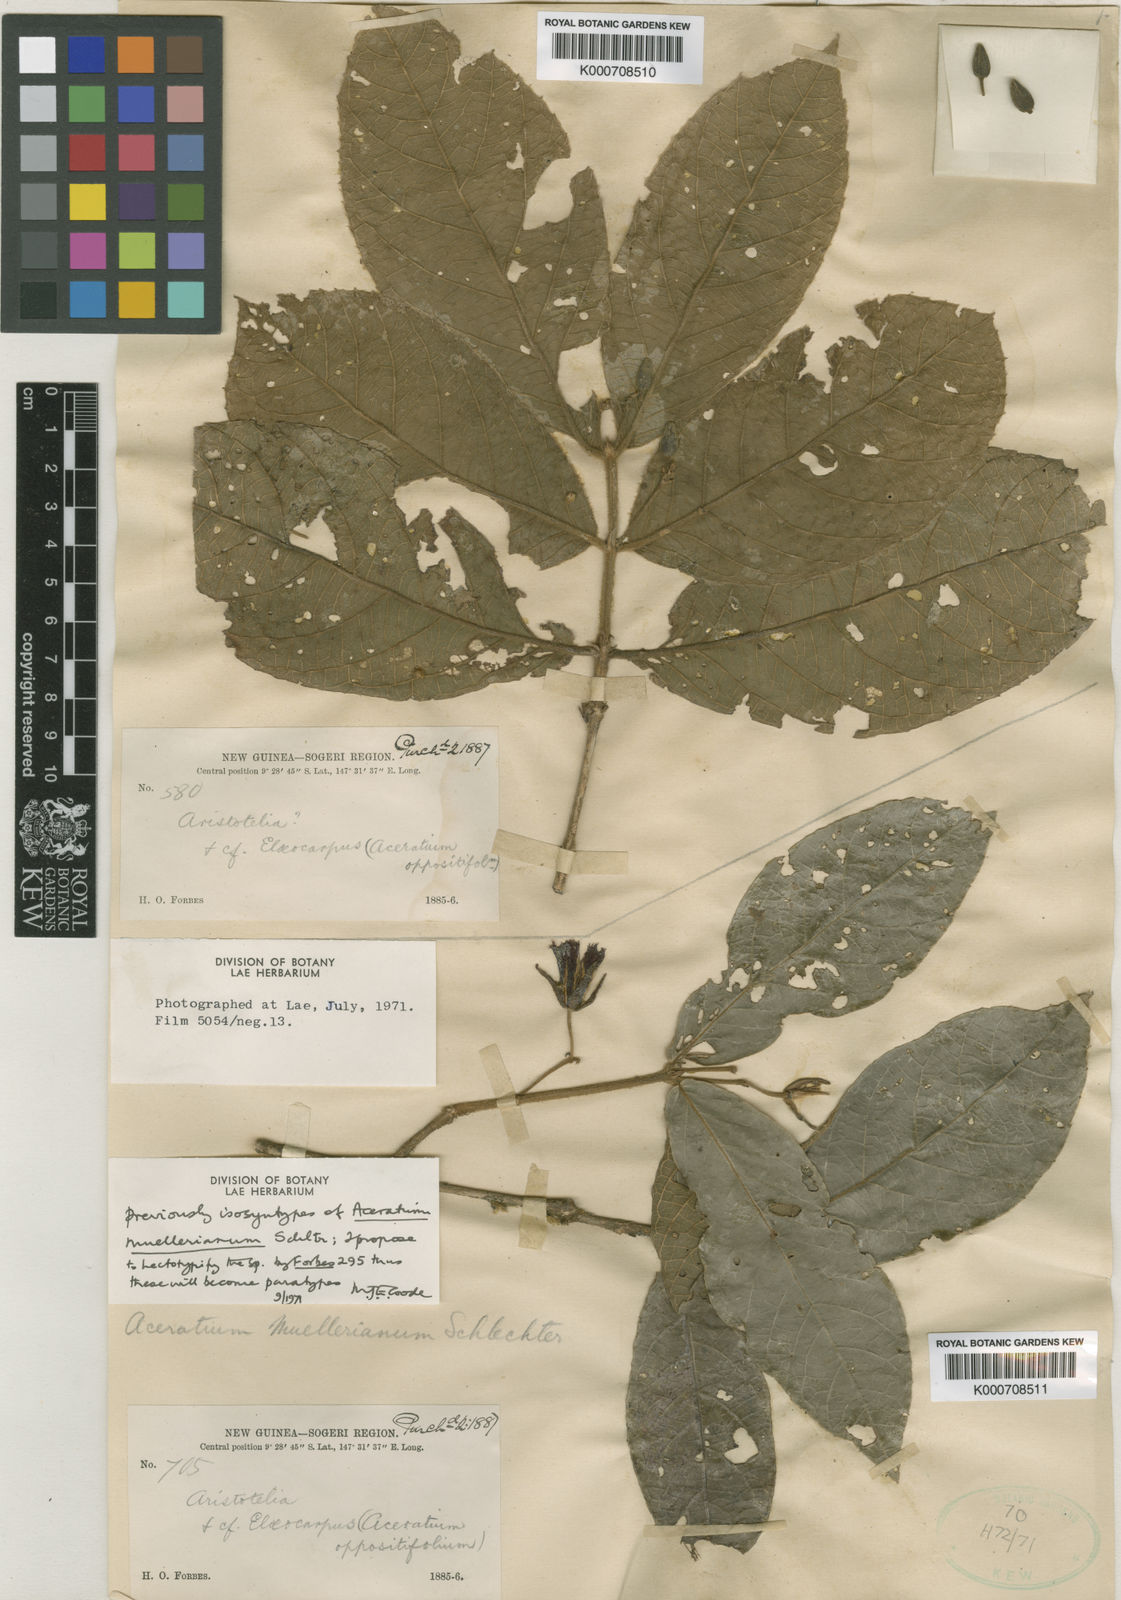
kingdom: Plantae
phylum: Tracheophyta
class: Magnoliopsida
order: Oxalidales
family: Elaeocarpaceae
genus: Aceratium
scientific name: Aceratium muellerianum
